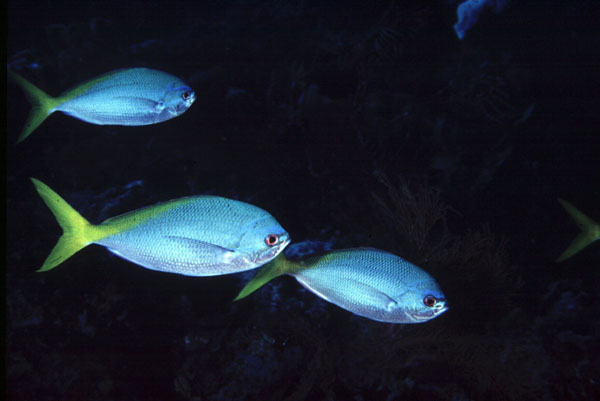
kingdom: Animalia
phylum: Chordata
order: Perciformes
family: Caesionidae
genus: Caesio
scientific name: Caesio cuning
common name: Red-bellied fusilier
